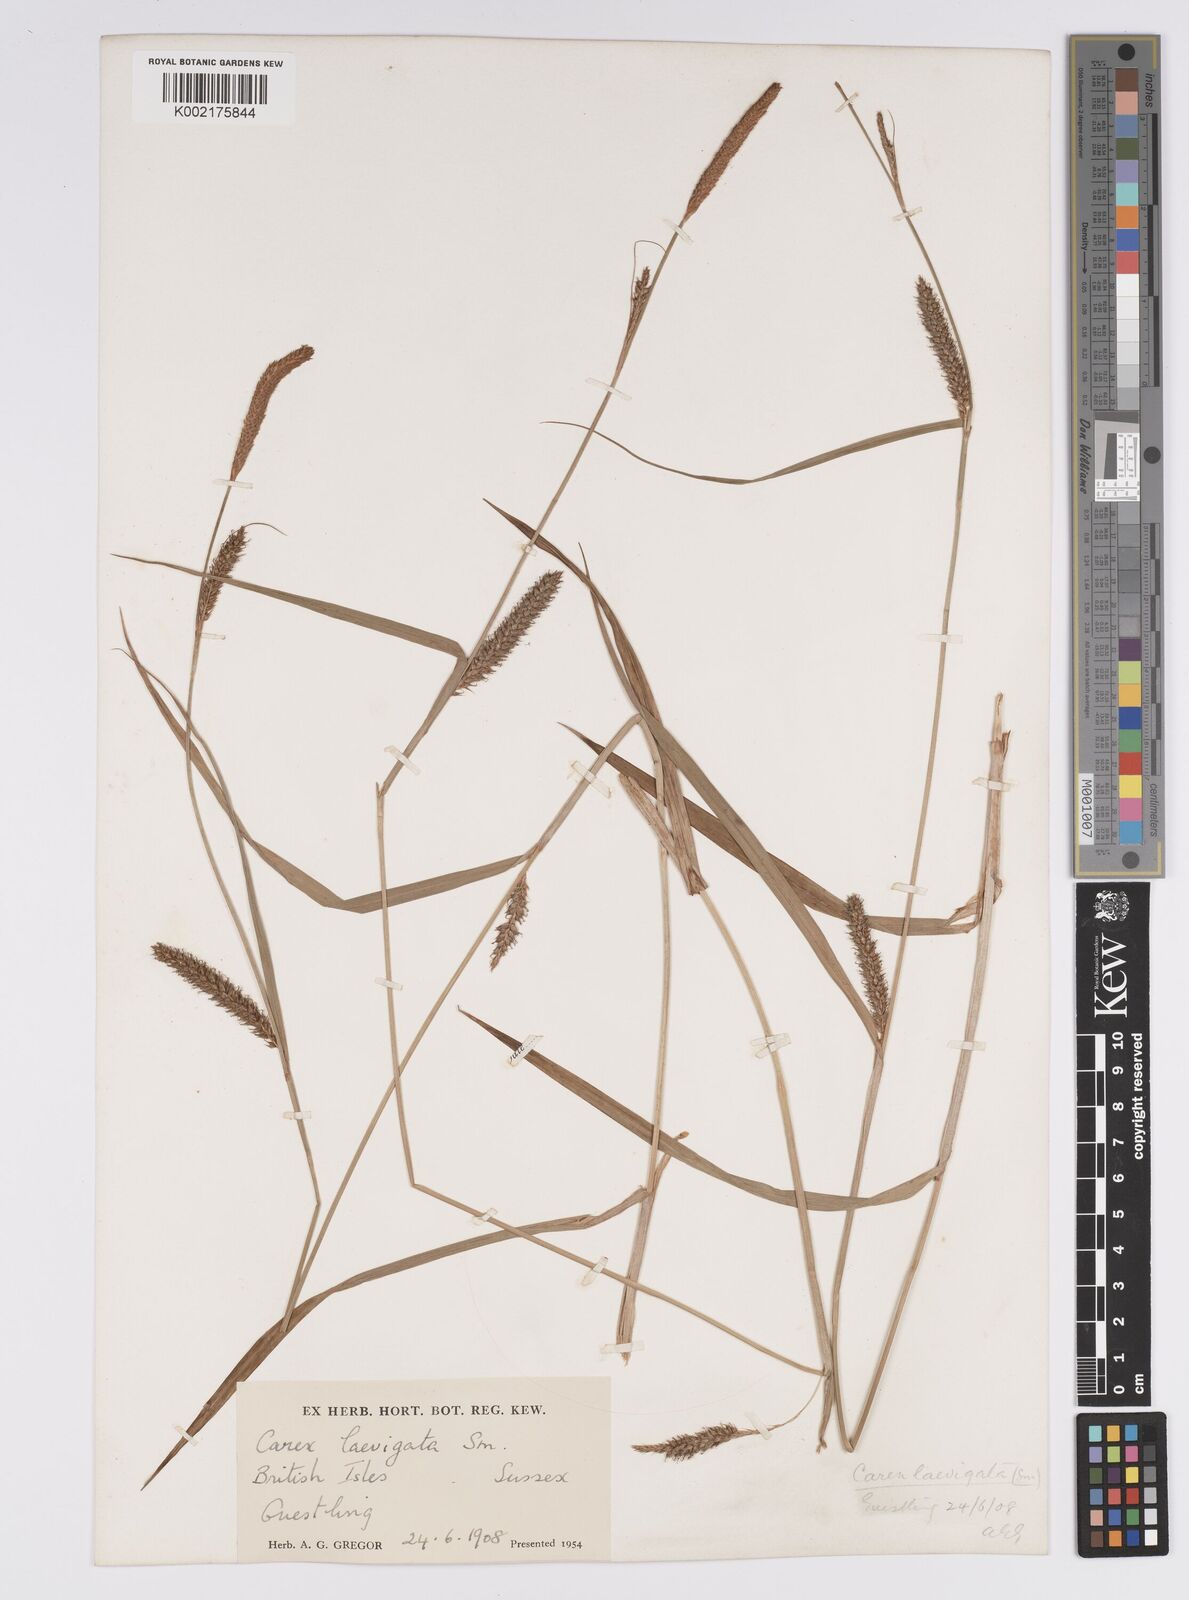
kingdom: Plantae
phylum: Tracheophyta
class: Liliopsida
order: Poales
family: Cyperaceae
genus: Carex
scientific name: Carex laevigata
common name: Smooth-stalked sedge
